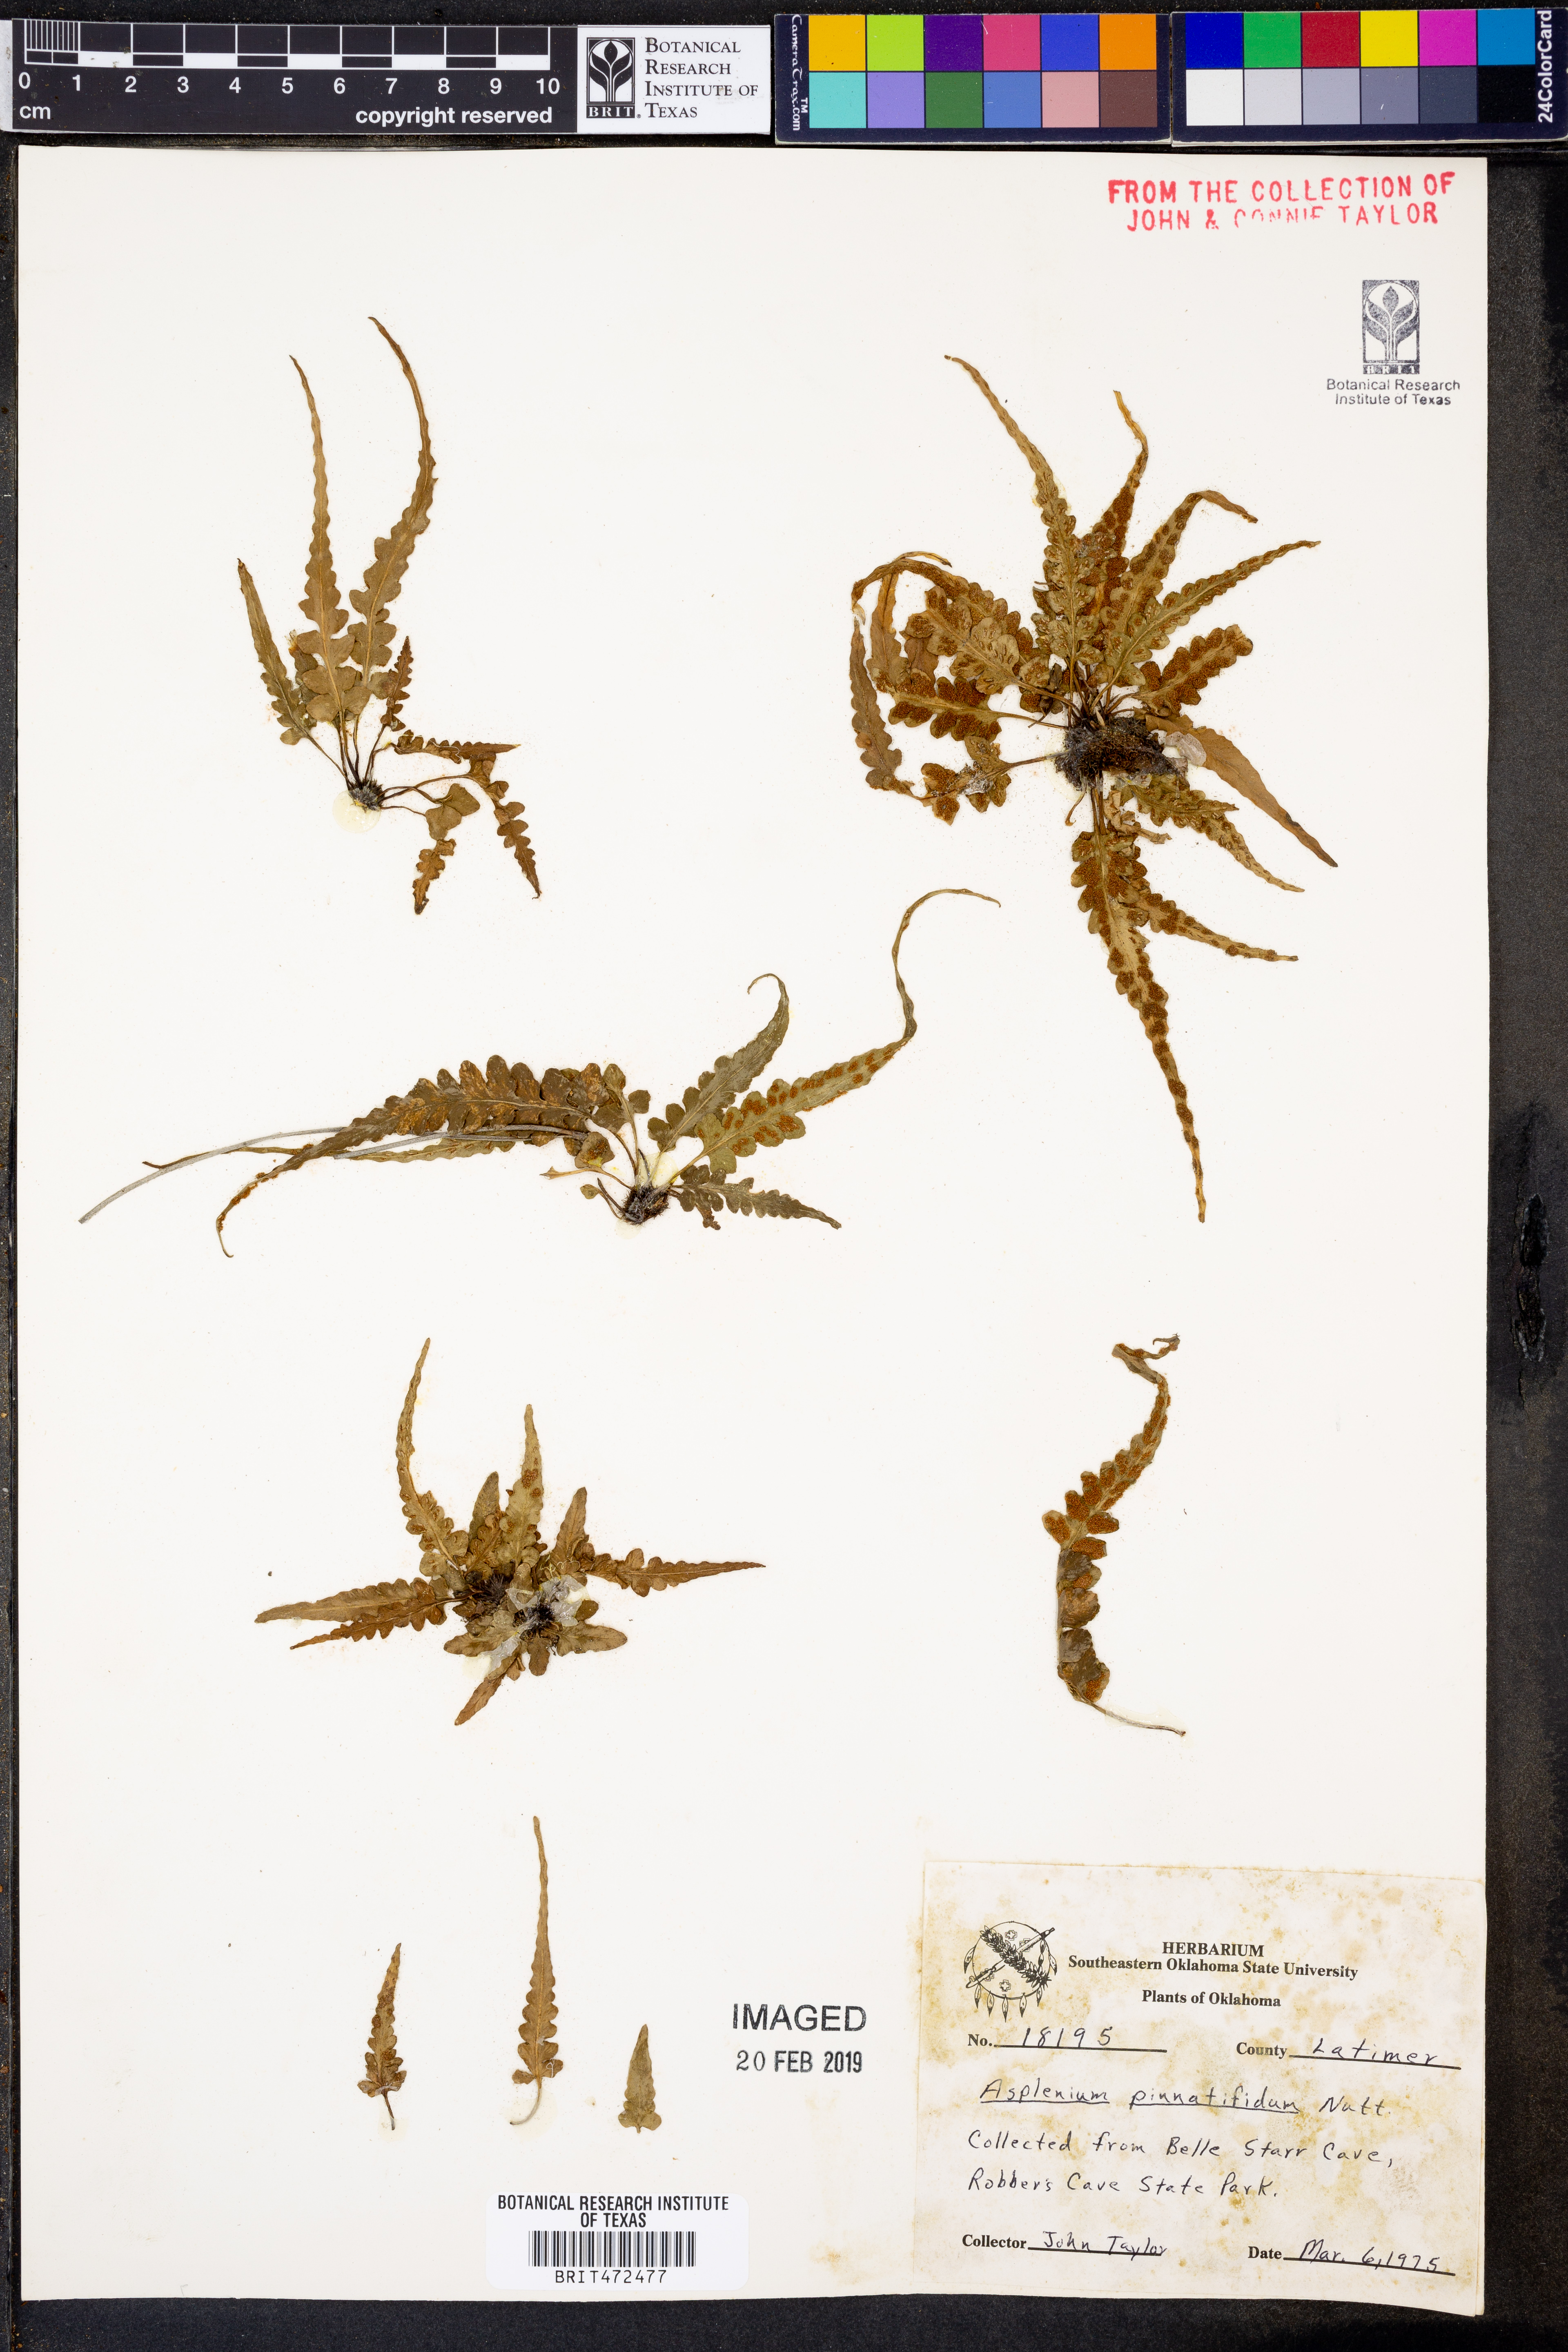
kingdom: Plantae
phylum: Tracheophyta
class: Polypodiopsida
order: Polypodiales
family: Aspleniaceae
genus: Asplenium
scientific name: Asplenium pinnatifidum
